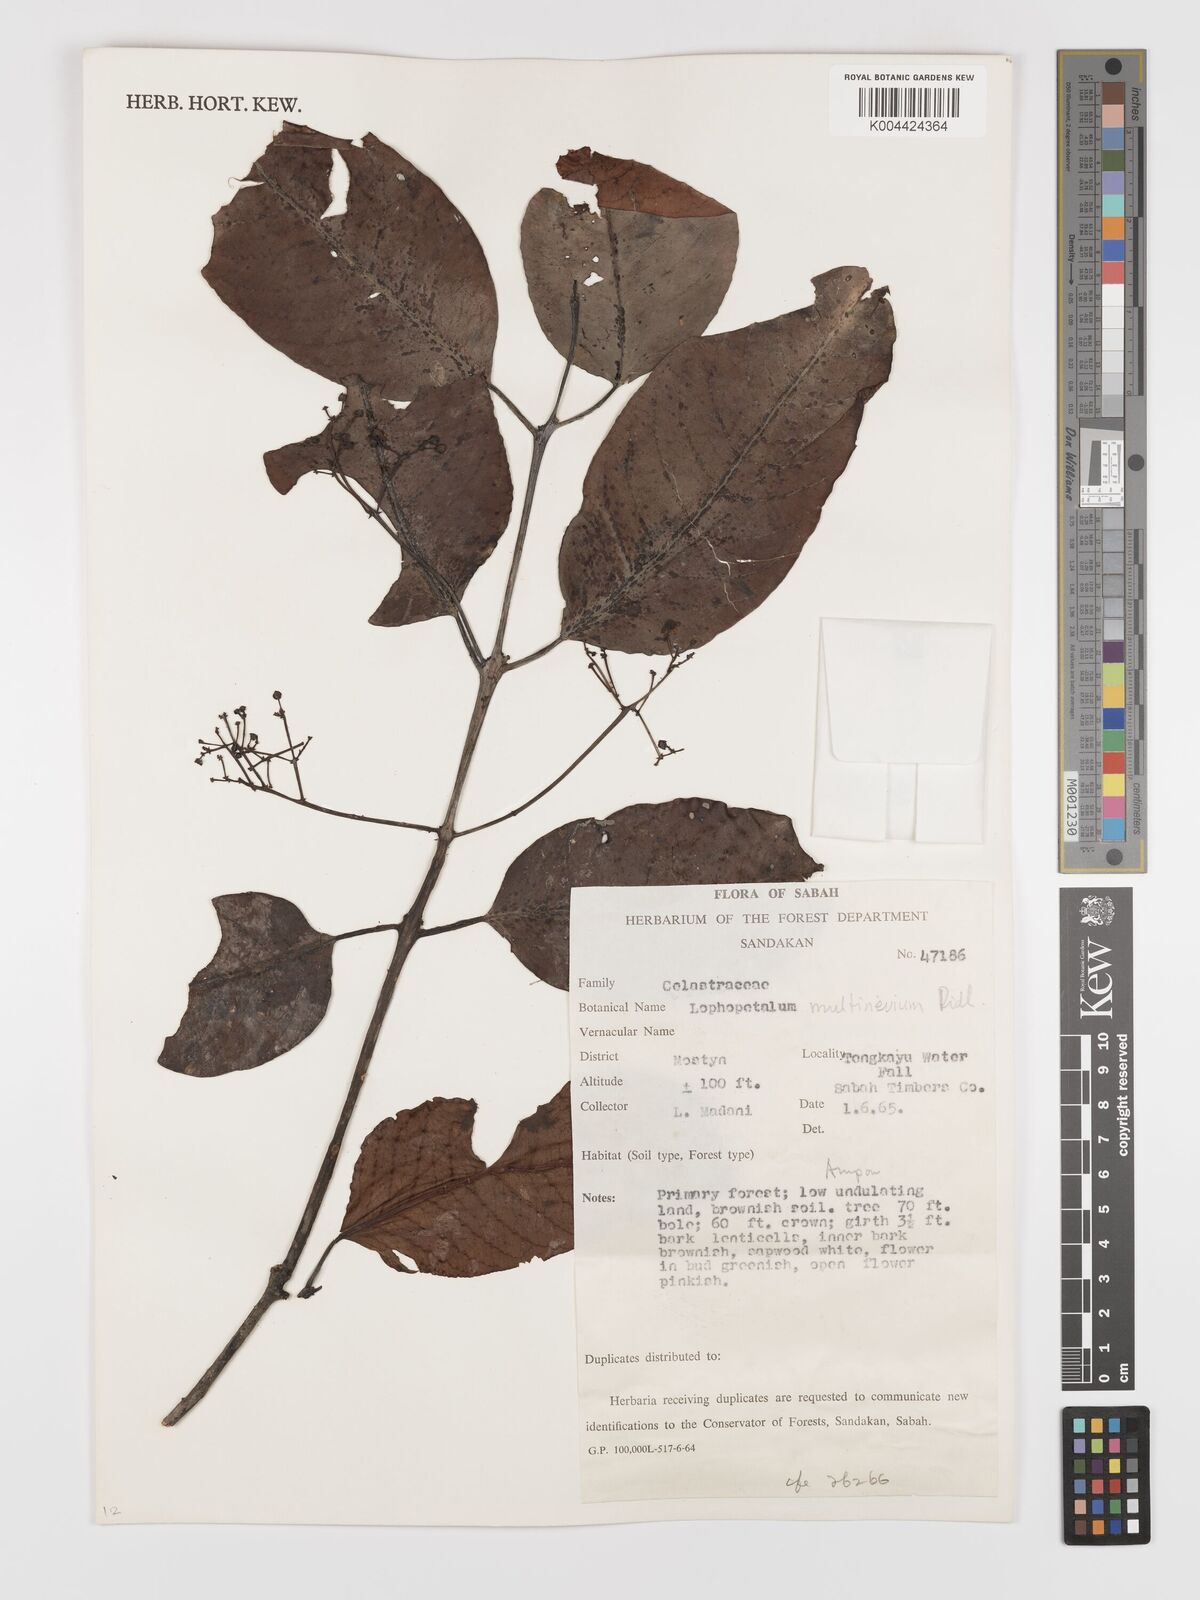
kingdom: Plantae
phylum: Tracheophyta
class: Magnoliopsida
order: Celastrales
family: Celastraceae
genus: Lophopetalum
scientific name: Lophopetalum multinervium
